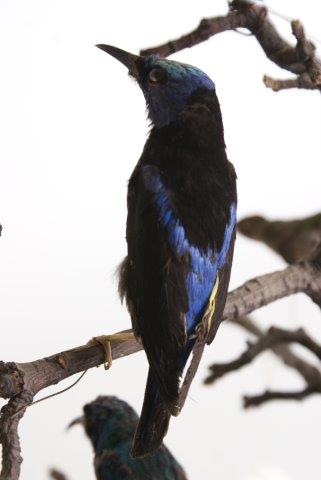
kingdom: Animalia
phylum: Chordata
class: Aves
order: Apodiformes
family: Trochilidae
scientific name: Trochilidae
